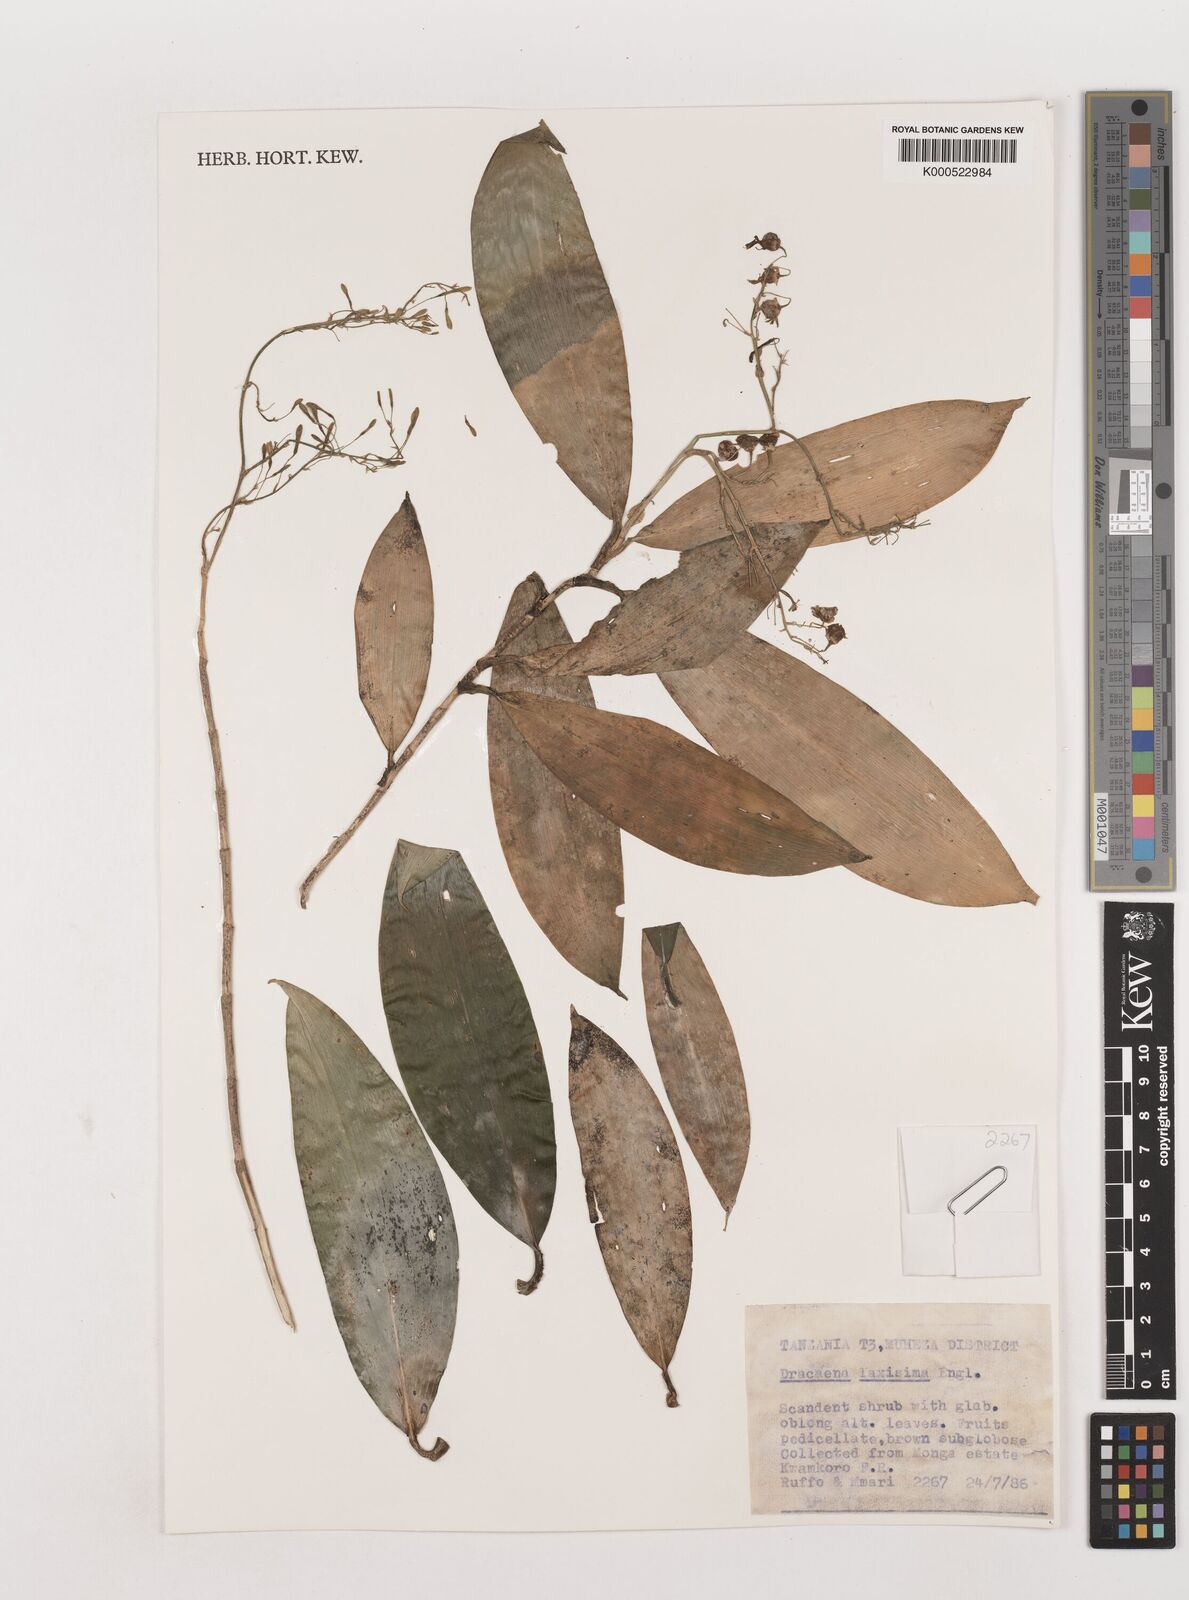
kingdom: Plantae
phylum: Tracheophyta
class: Liliopsida
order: Asparagales
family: Asparagaceae
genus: Dracaena
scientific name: Dracaena laxissima
